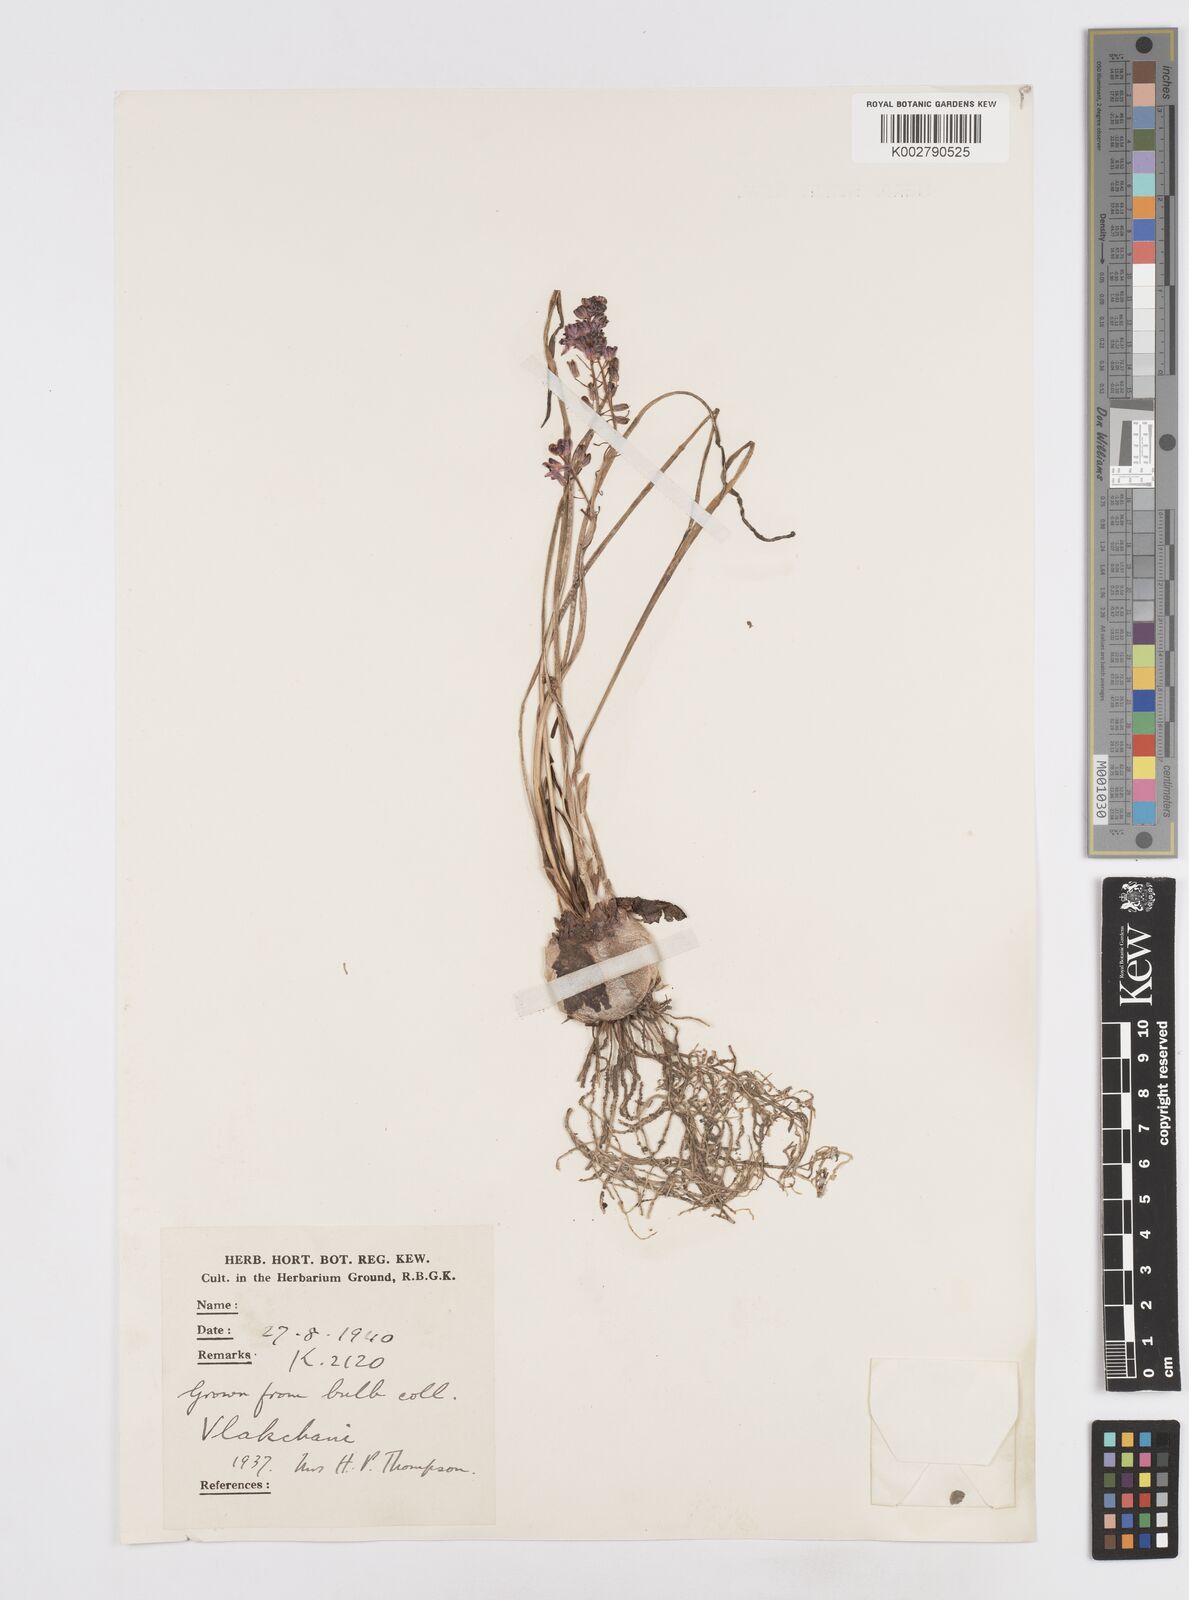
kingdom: Plantae
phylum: Tracheophyta
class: Liliopsida
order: Asparagales
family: Asparagaceae
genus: Scilla
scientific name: Scilla
